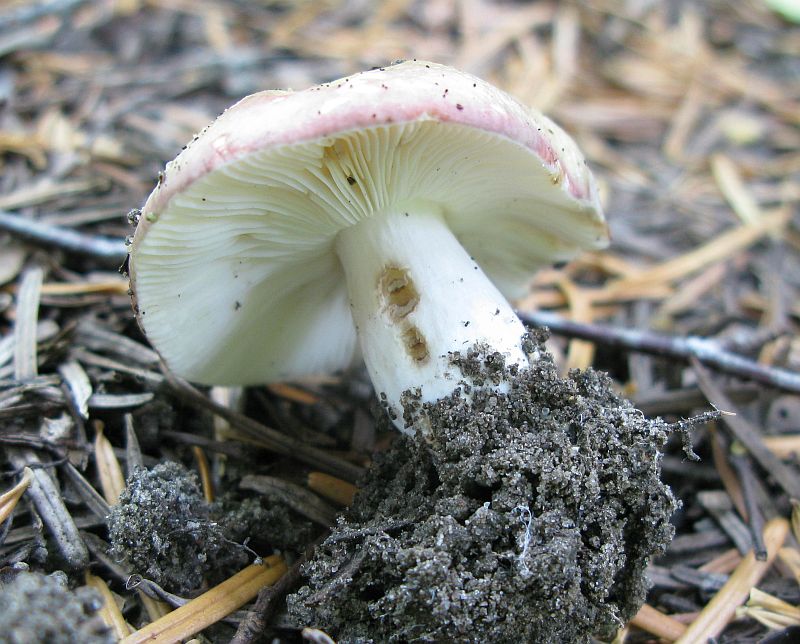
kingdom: Fungi
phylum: Basidiomycota
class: Agaricomycetes
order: Russulales
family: Russulaceae
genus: Russula
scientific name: Russula depallens
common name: falmende skørhat
